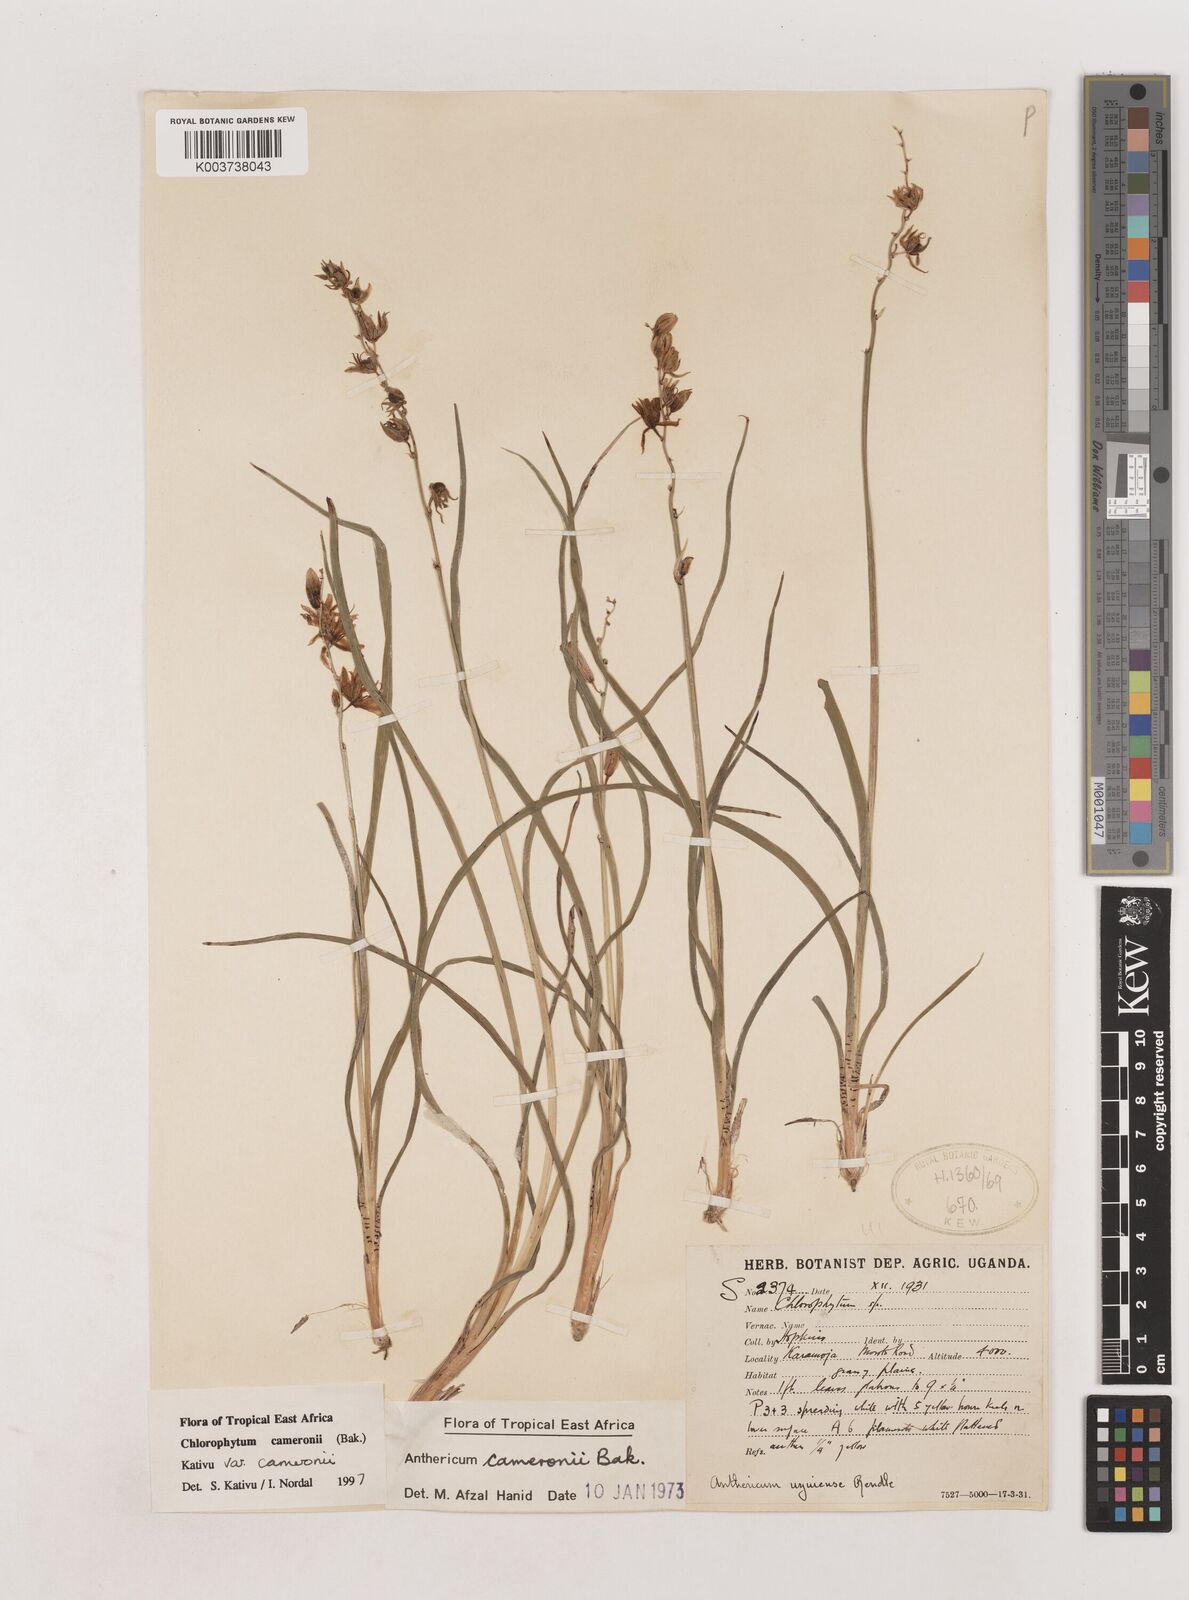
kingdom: Plantae
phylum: Tracheophyta
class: Liliopsida
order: Asparagales
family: Asparagaceae
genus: Chlorophytum
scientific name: Chlorophytum cameronii
